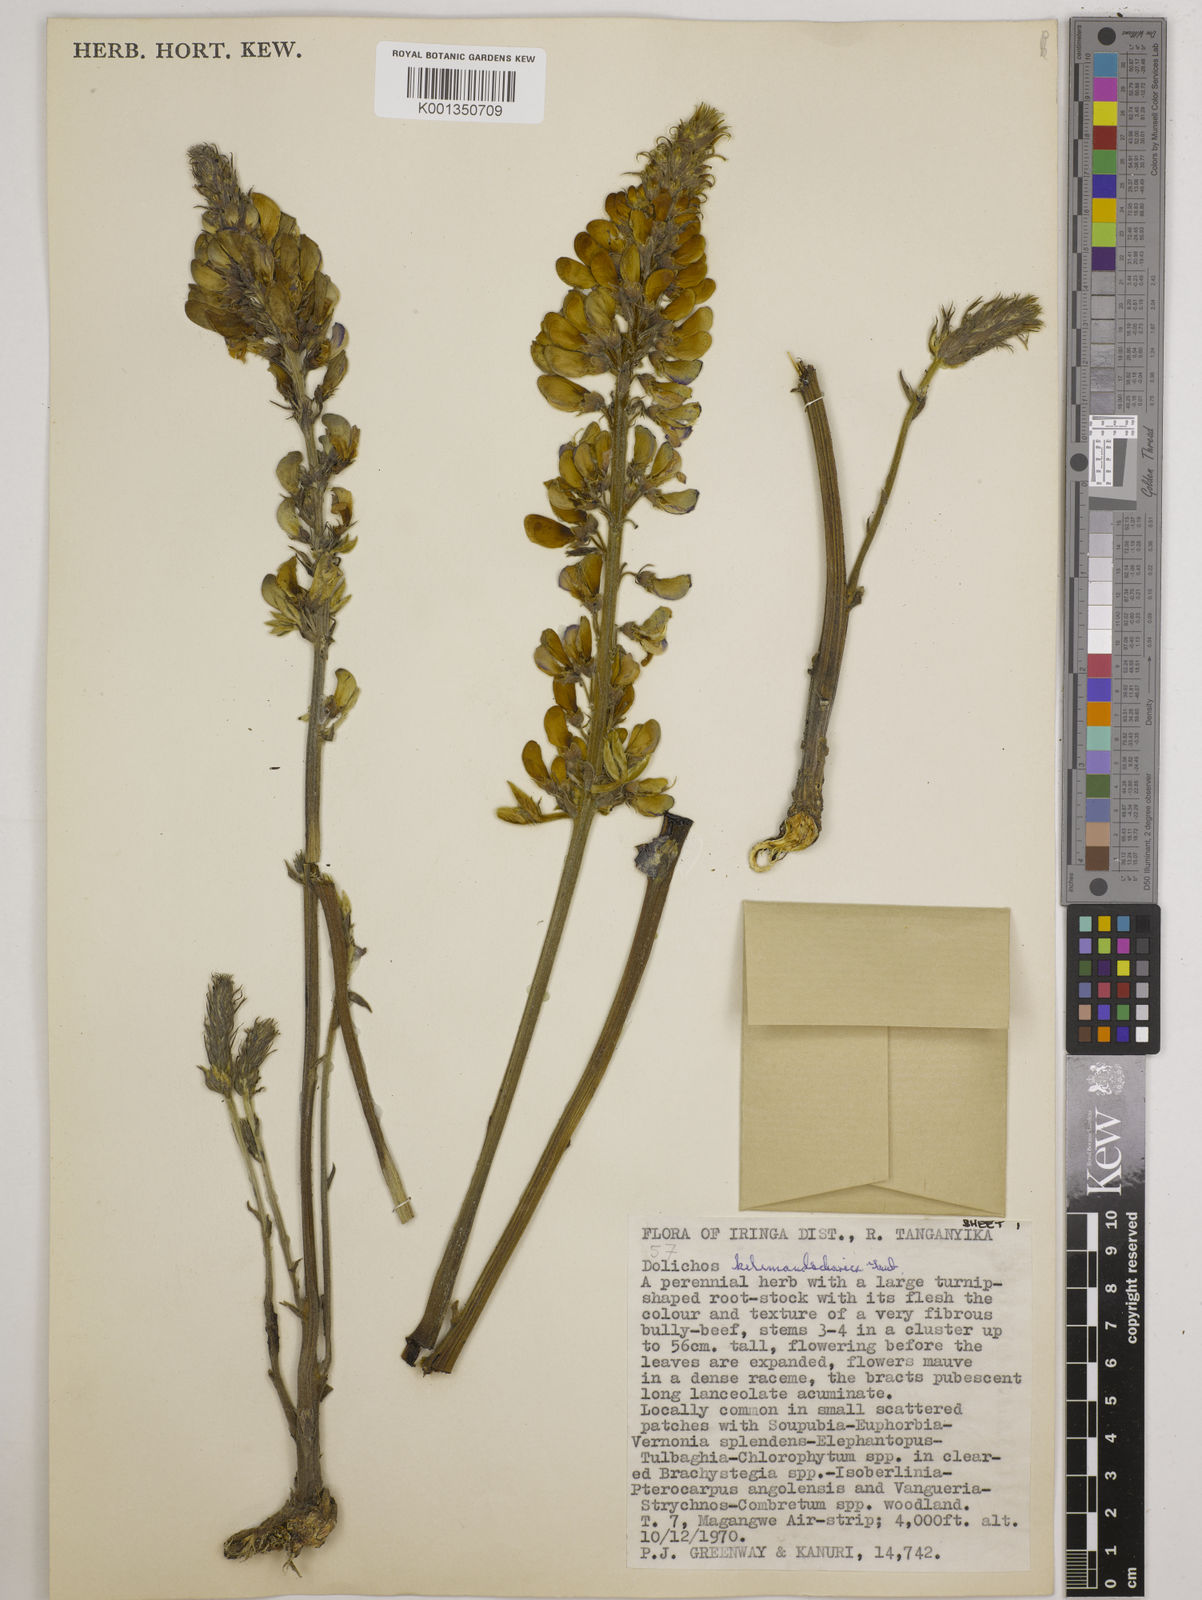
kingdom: Plantae
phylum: Tracheophyta
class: Magnoliopsida
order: Fabales
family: Fabaceae
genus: Dolichos
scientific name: Dolichos kilimandscharicus
